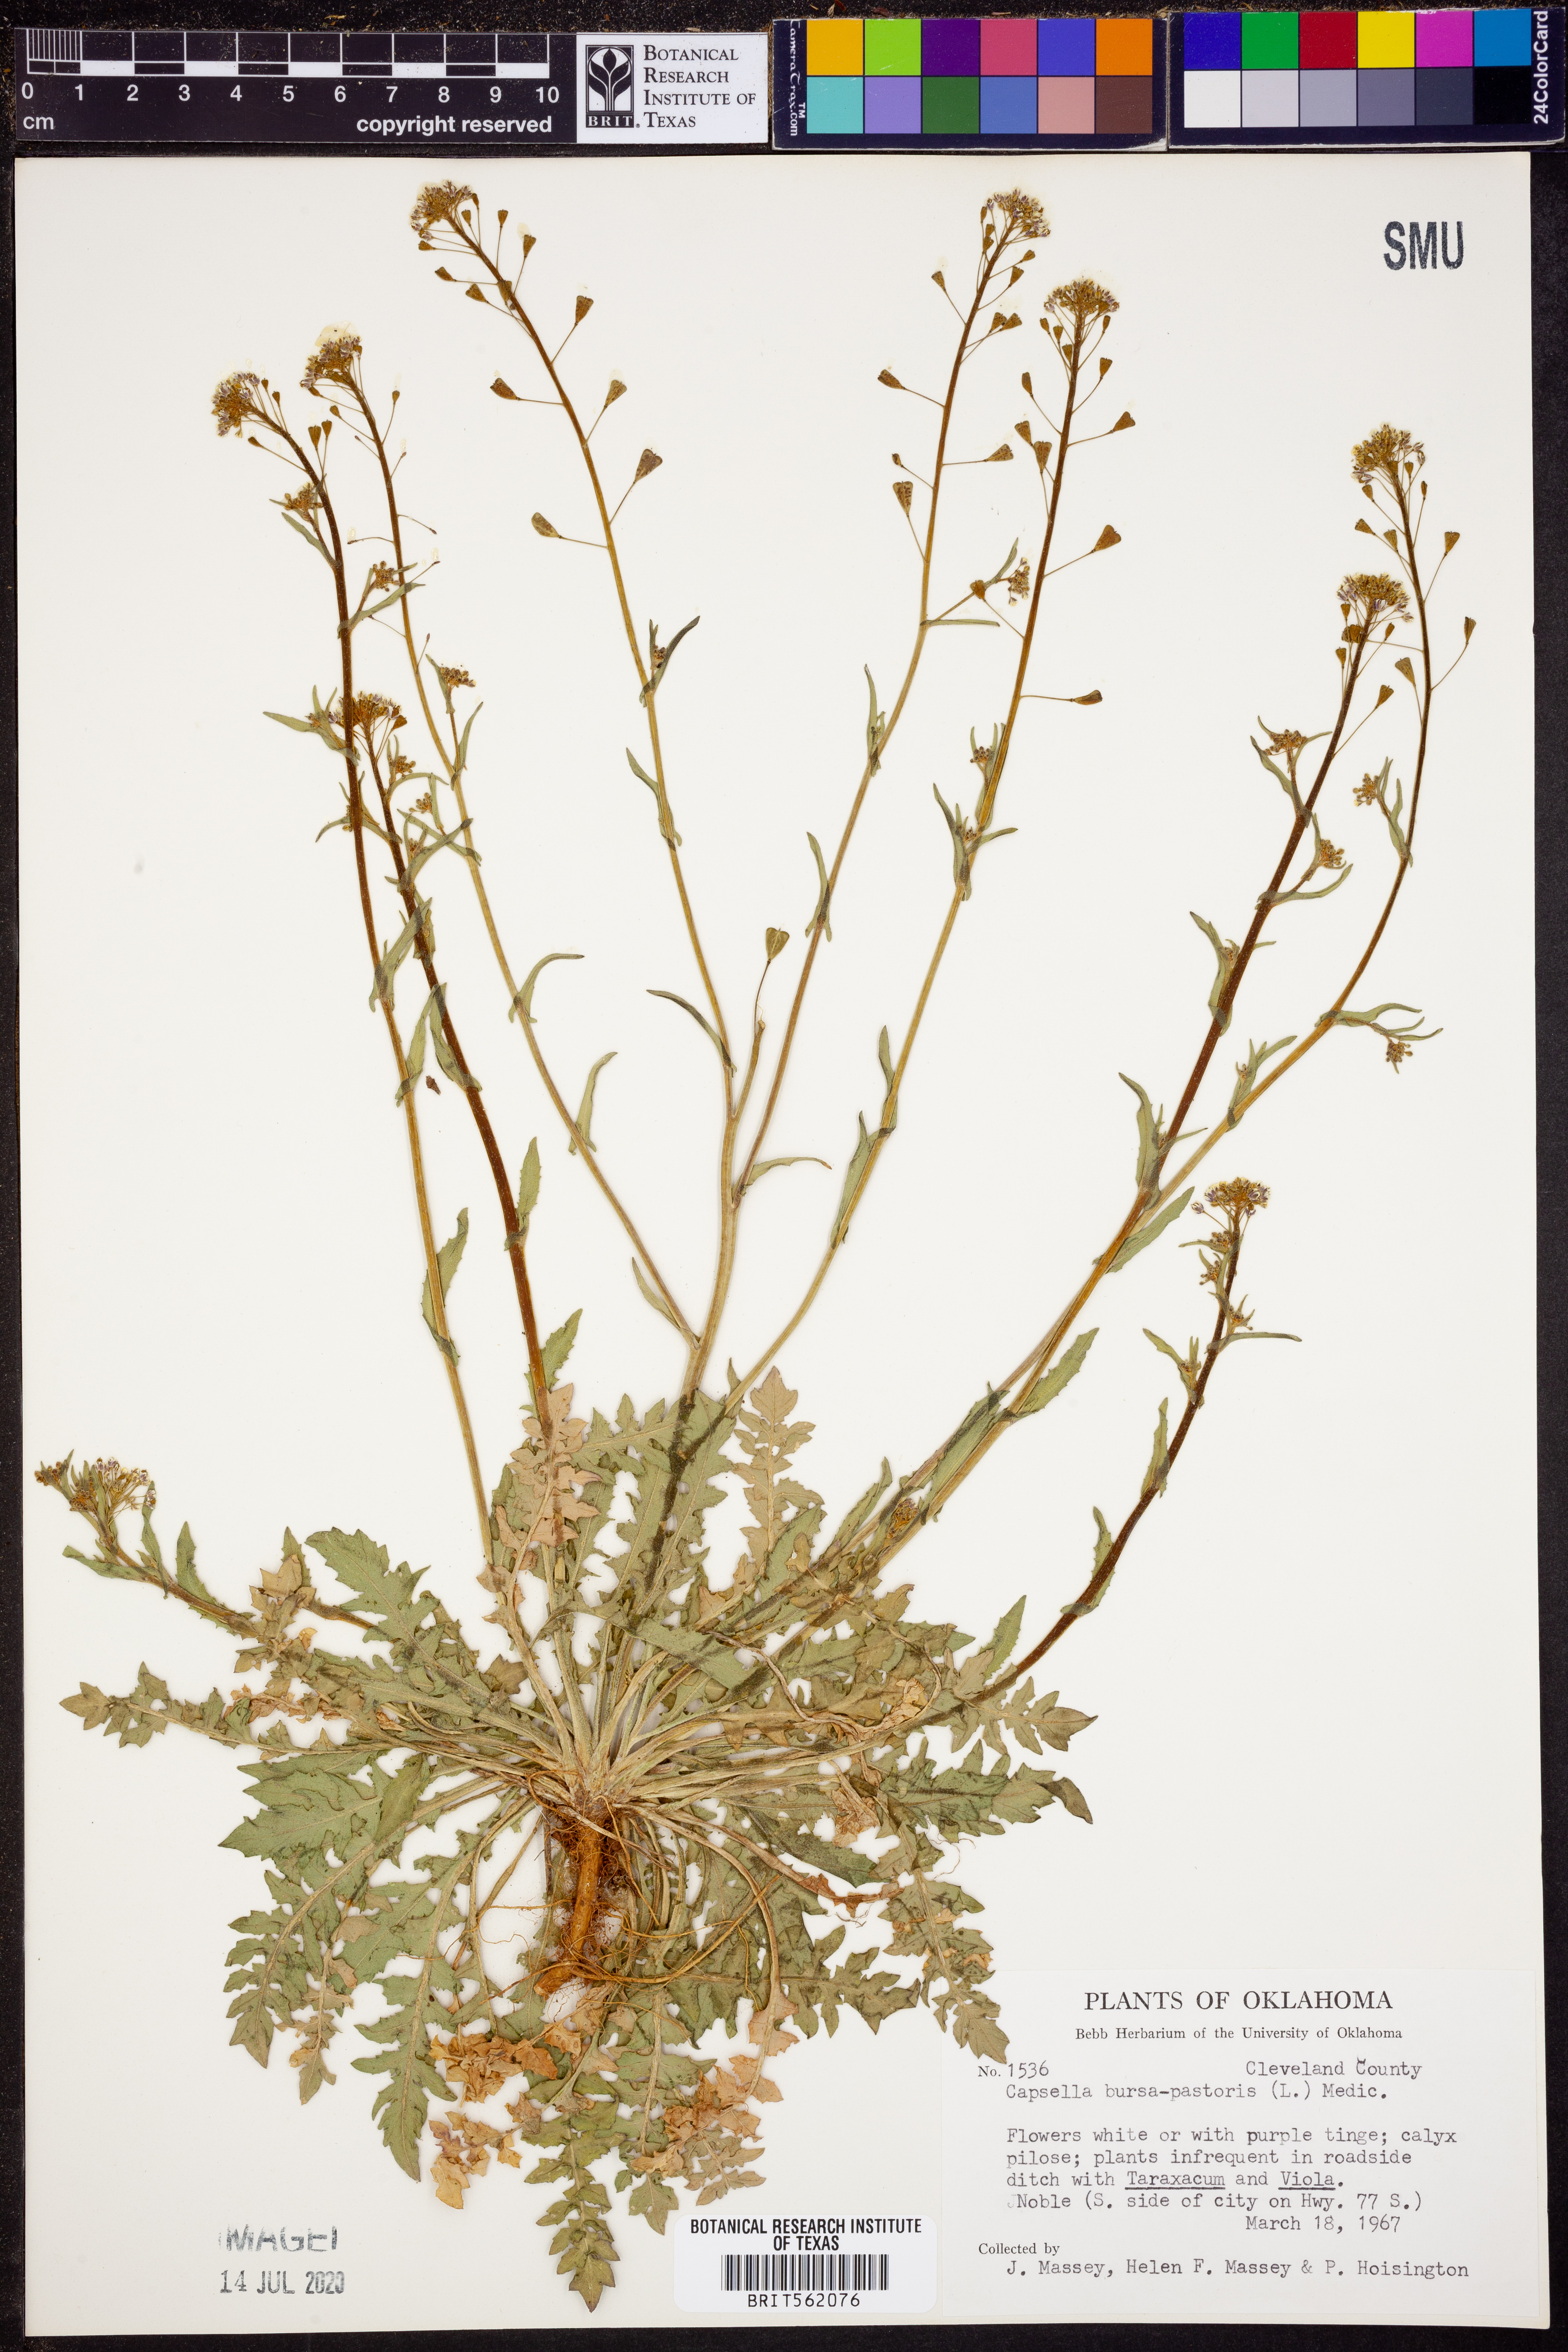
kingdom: Plantae
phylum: Tracheophyta
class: Magnoliopsida
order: Brassicales
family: Brassicaceae
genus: Capsella
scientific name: Capsella bursa-pastoris
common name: Shepherd's purse
